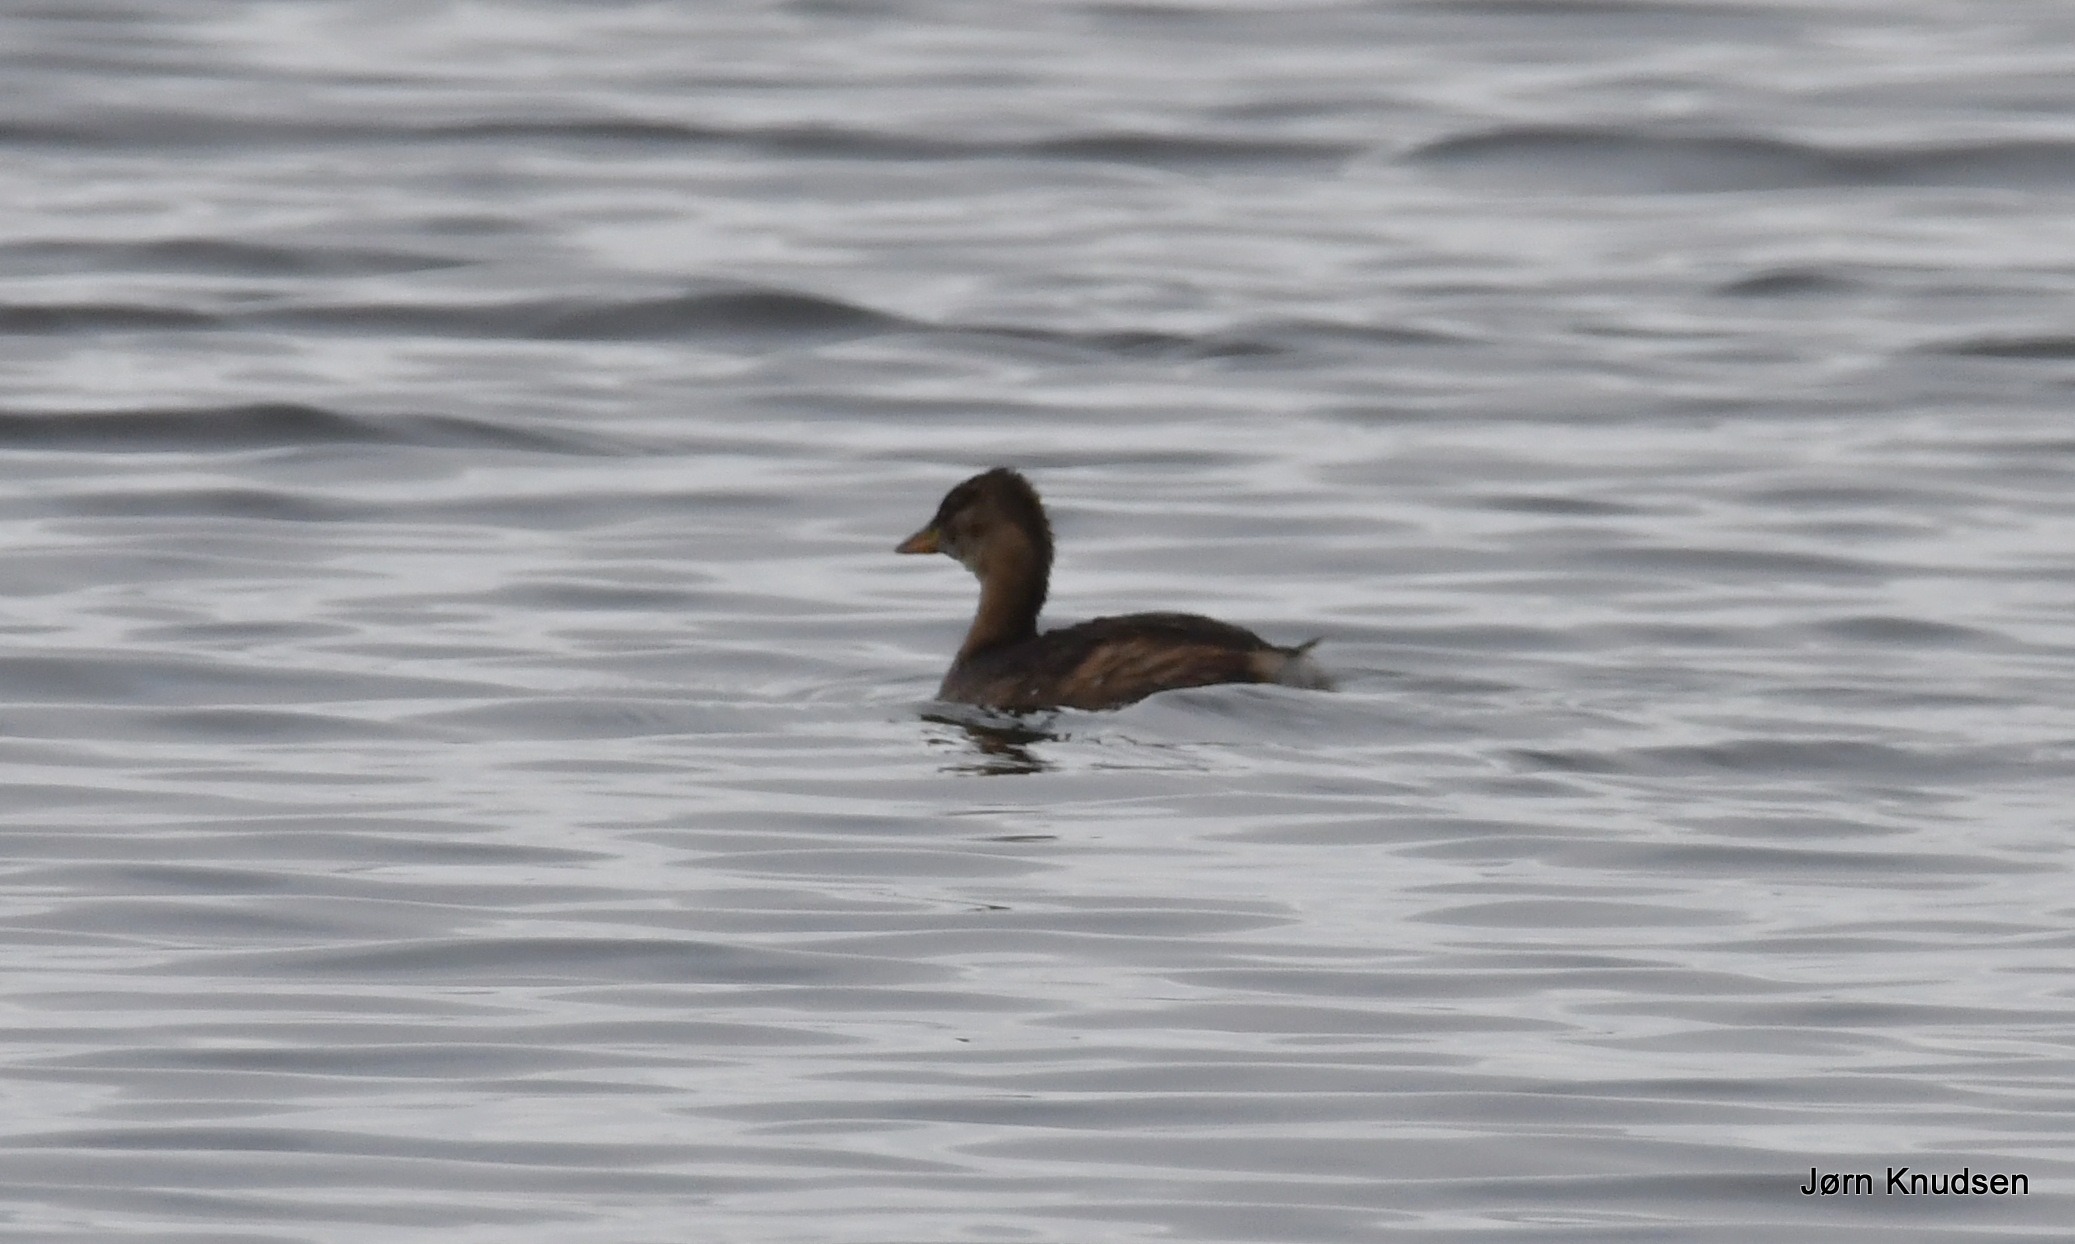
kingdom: Animalia
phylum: Chordata
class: Aves
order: Podicipediformes
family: Podicipedidae
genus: Tachybaptus
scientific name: Tachybaptus ruficollis
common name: Lille lappedykker
